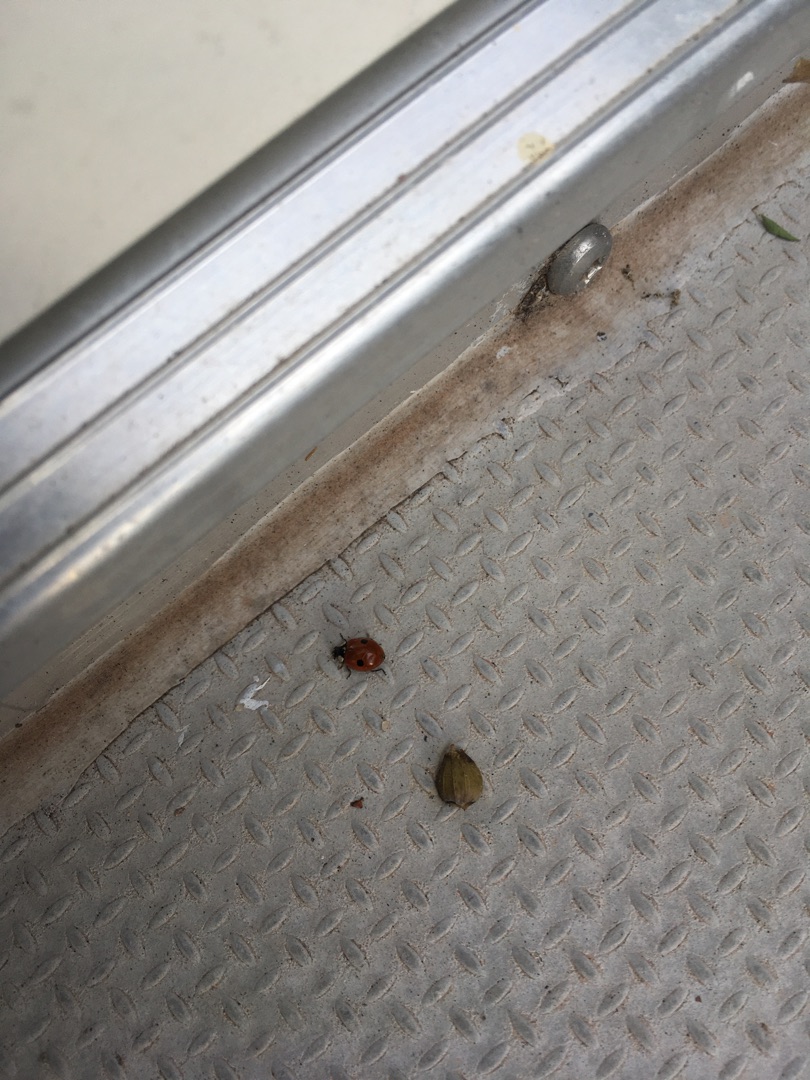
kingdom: Animalia
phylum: Arthropoda
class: Insecta
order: Coleoptera
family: Coccinellidae
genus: Adalia
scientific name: Adalia bipunctata
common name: Toplettet mariehøne
